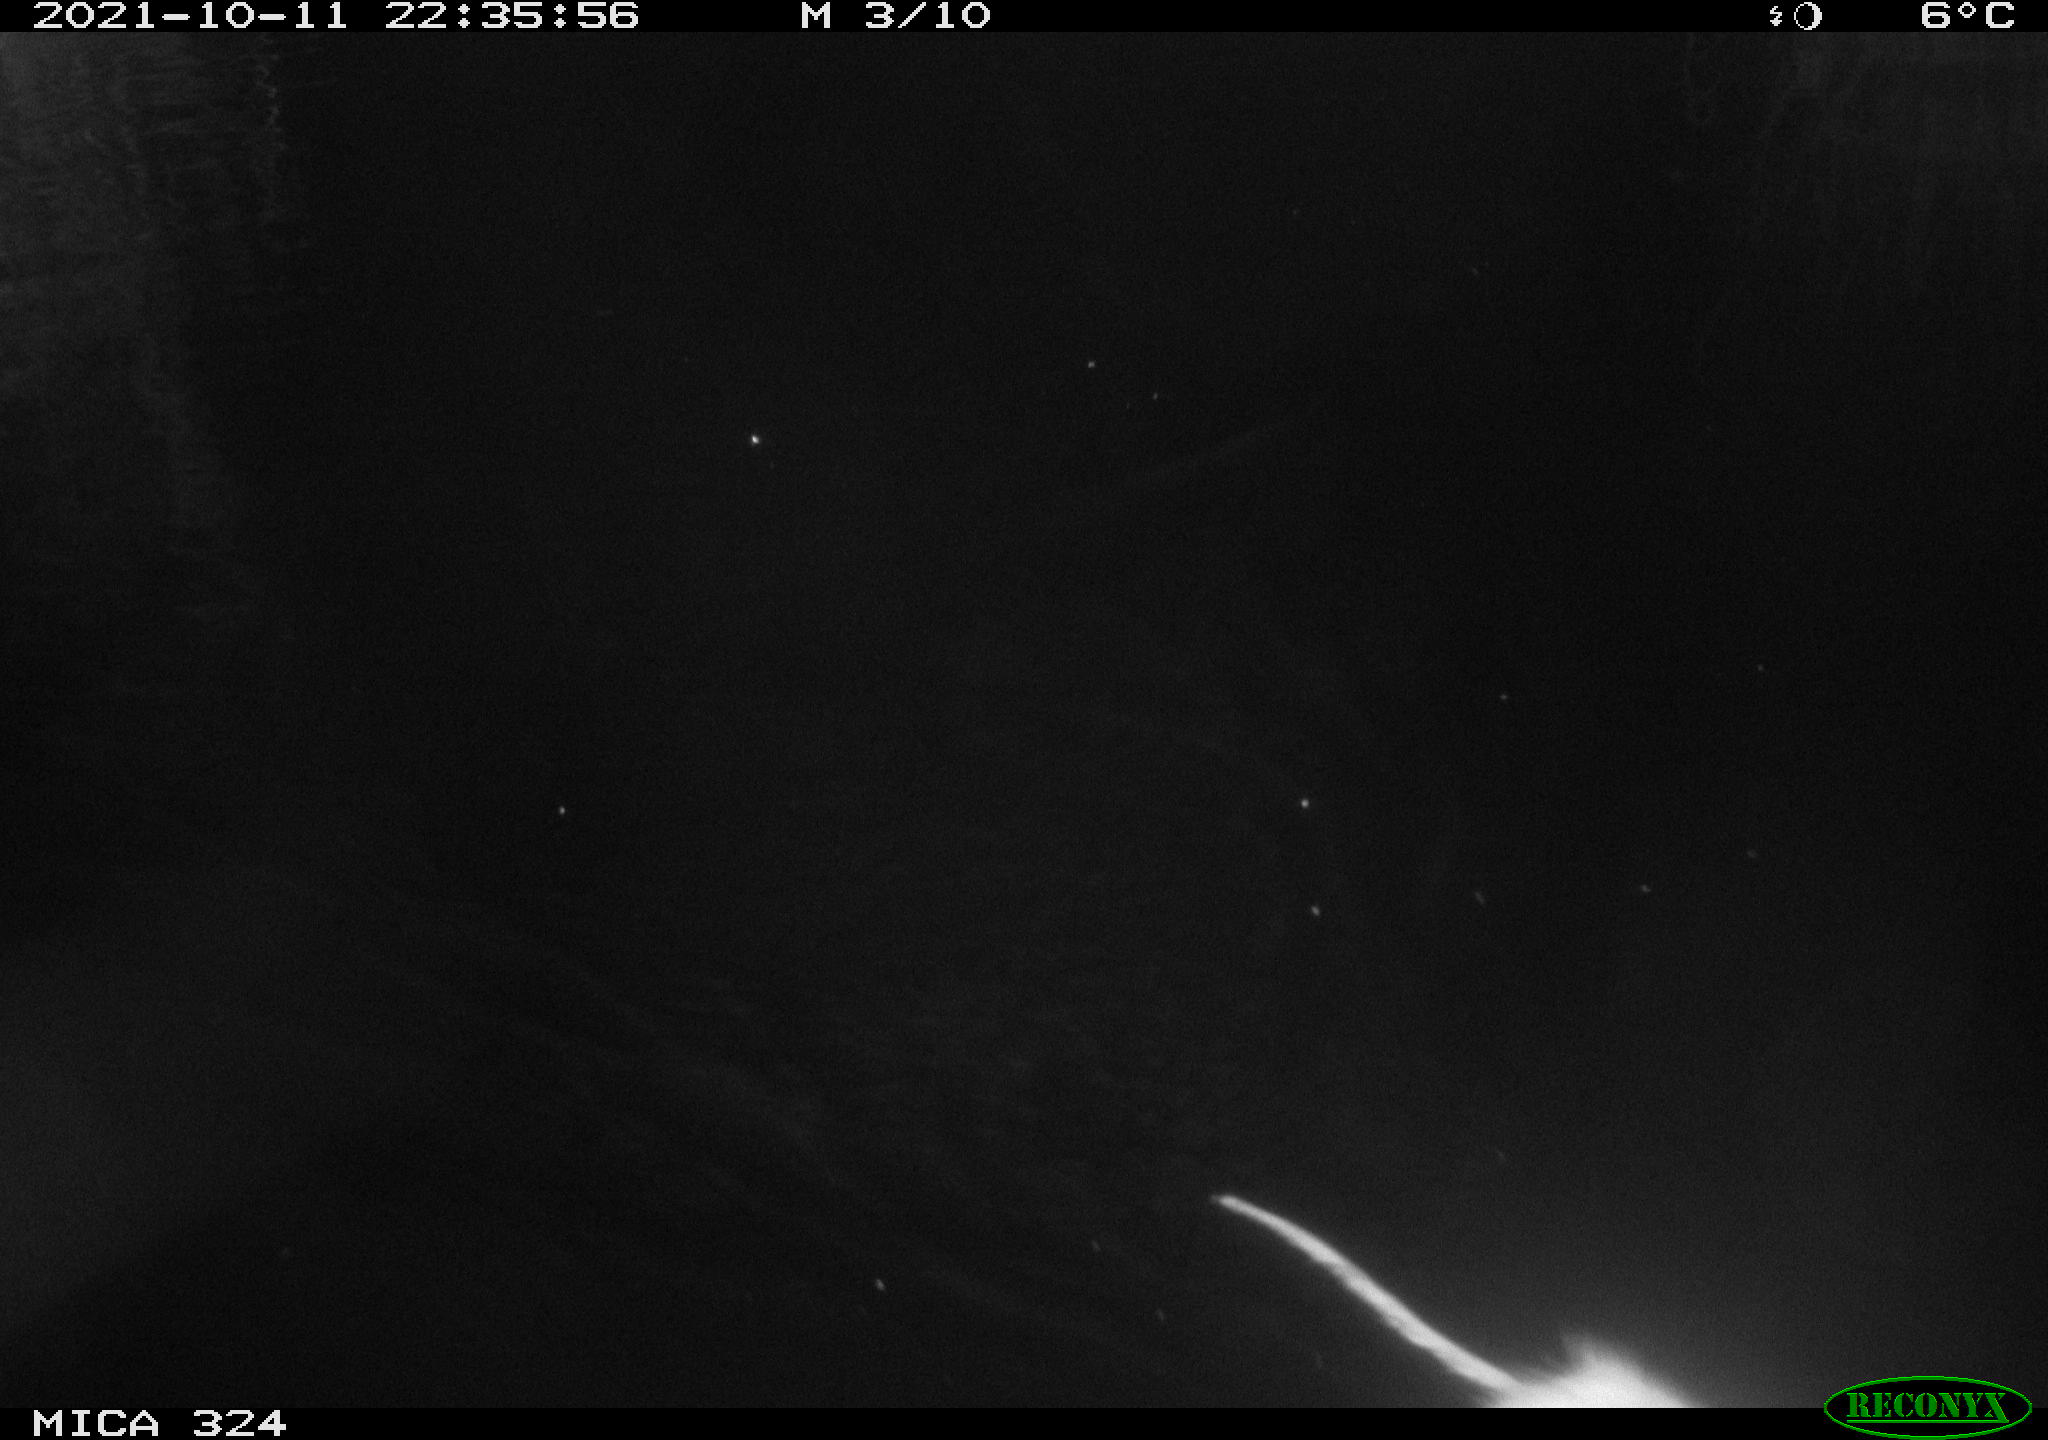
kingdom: Animalia
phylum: Chordata
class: Mammalia
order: Rodentia
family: Cricetidae
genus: Ondatra
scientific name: Ondatra zibethicus
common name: Muskrat
